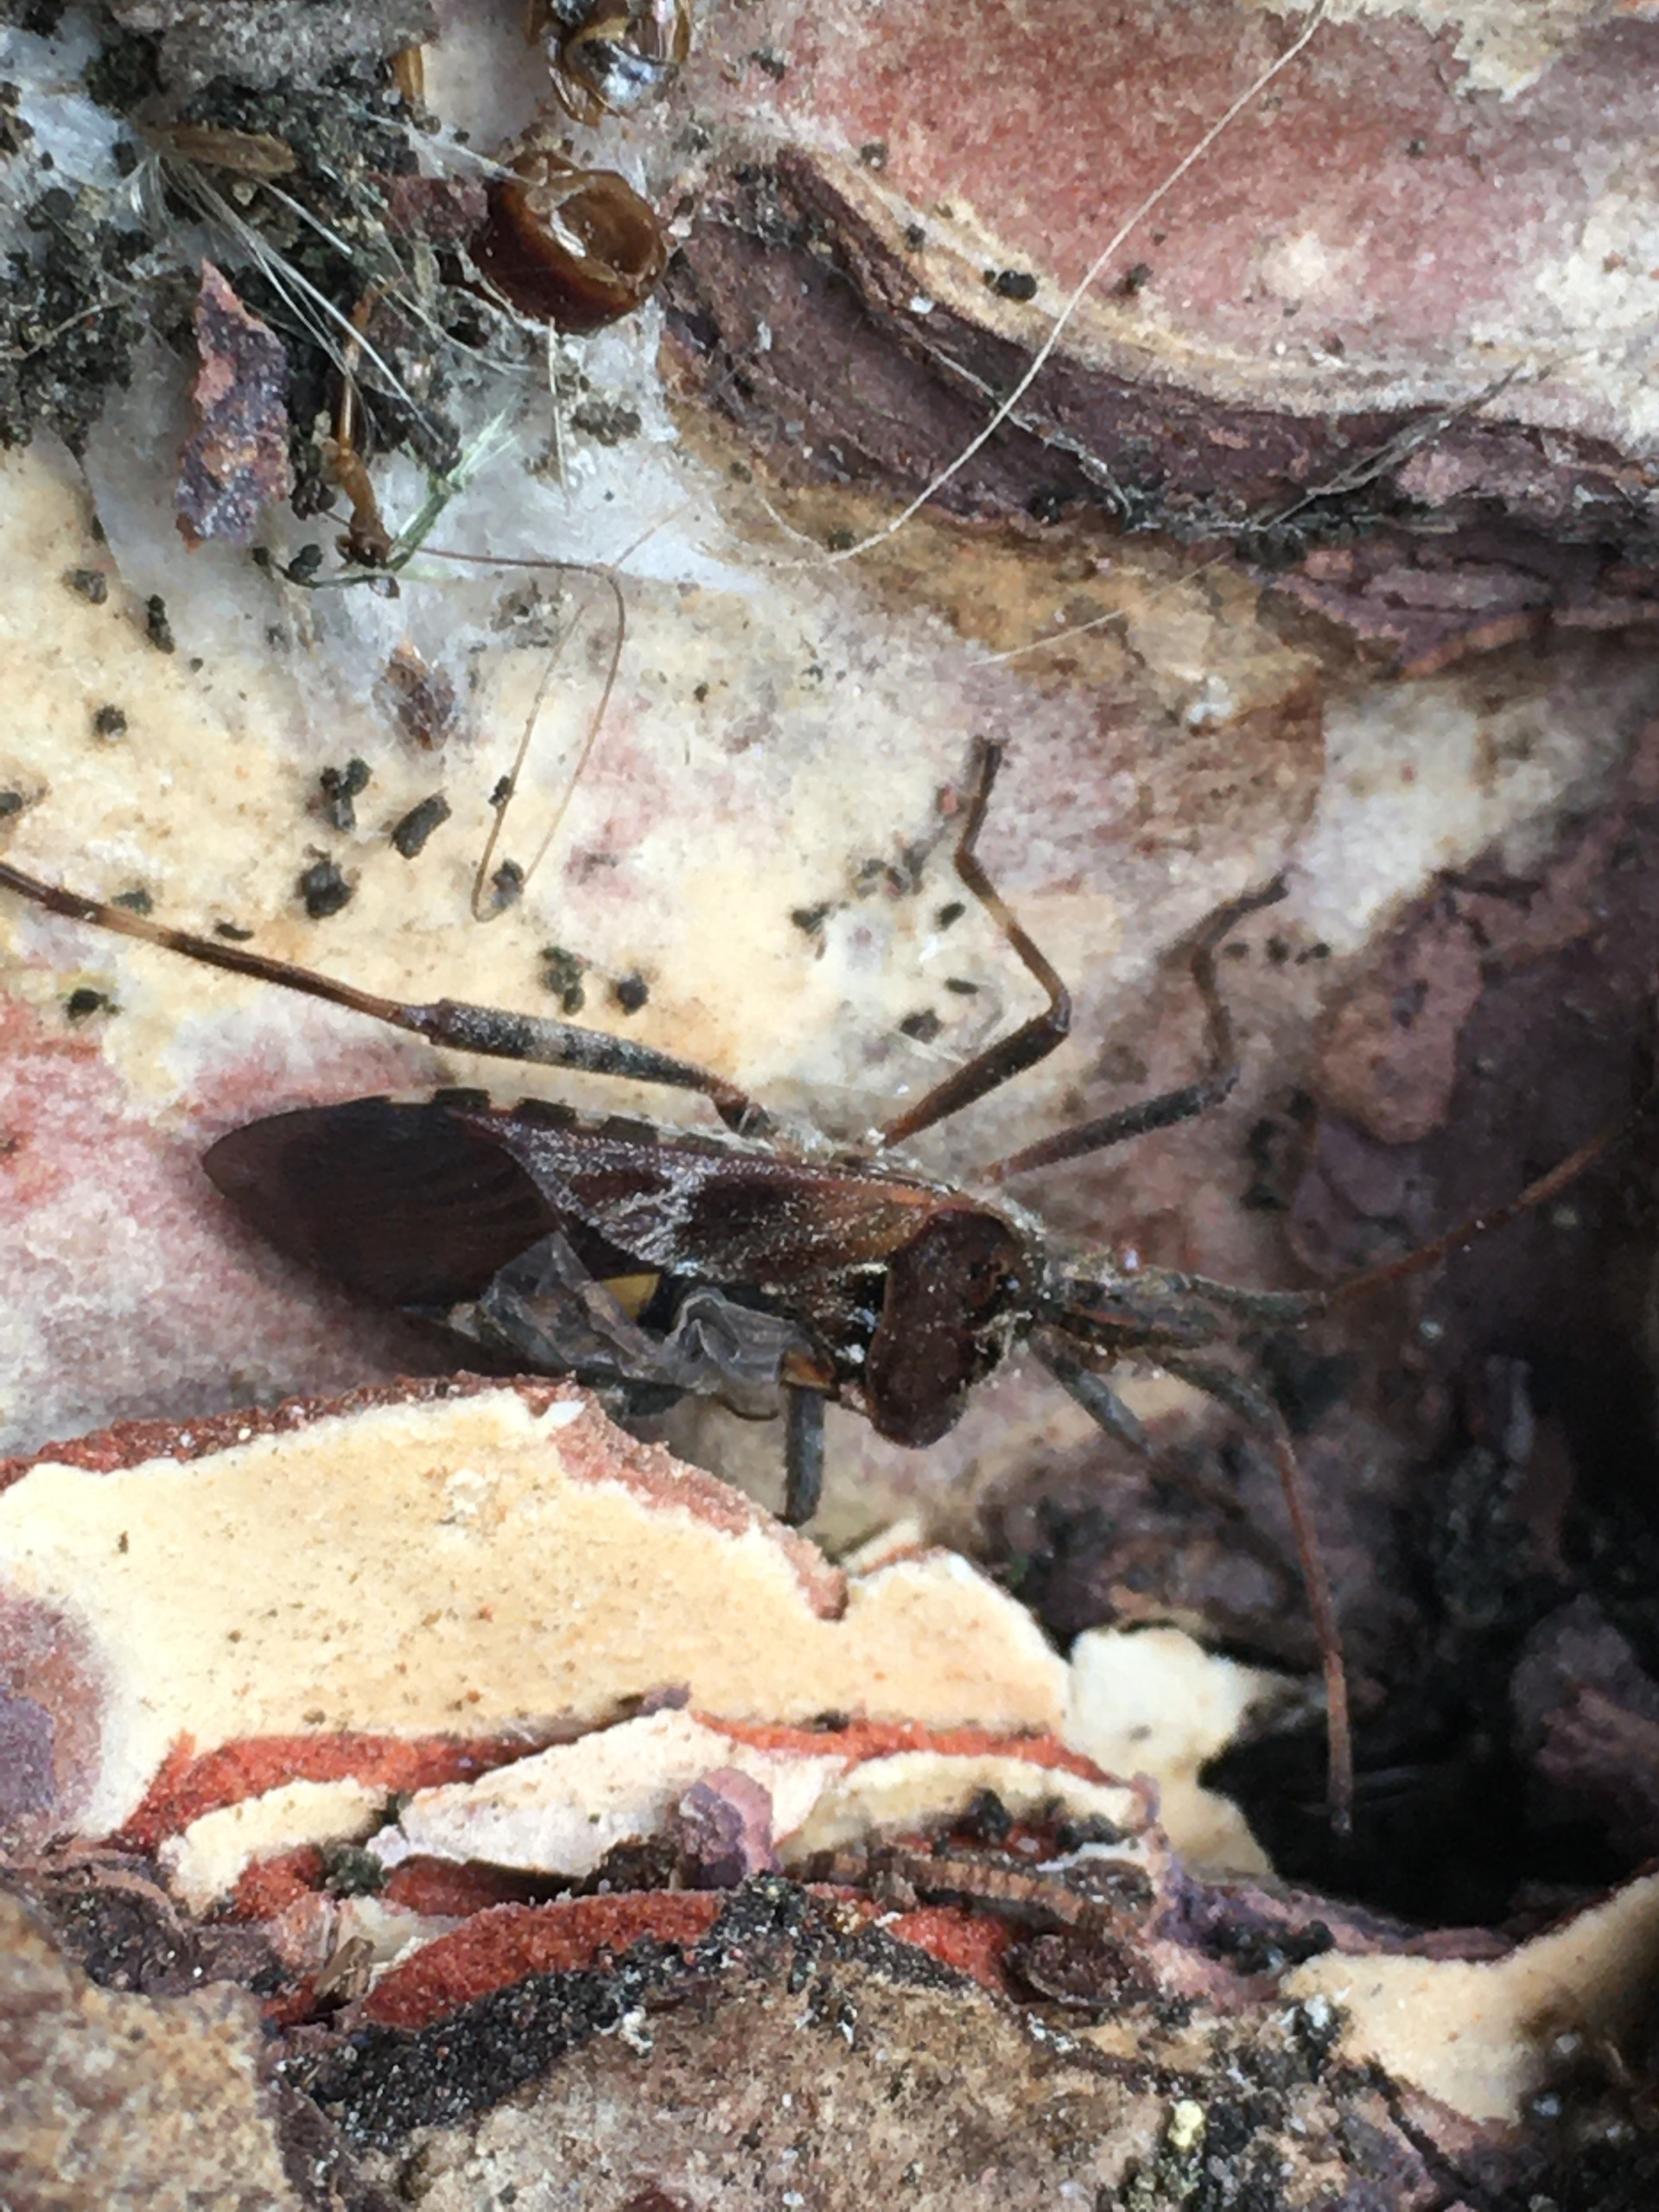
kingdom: Animalia
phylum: Arthropoda
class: Insecta
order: Hemiptera
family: Coreidae
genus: Leptoglossus
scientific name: Leptoglossus occidentalis
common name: Amerikansk fyrretæge
